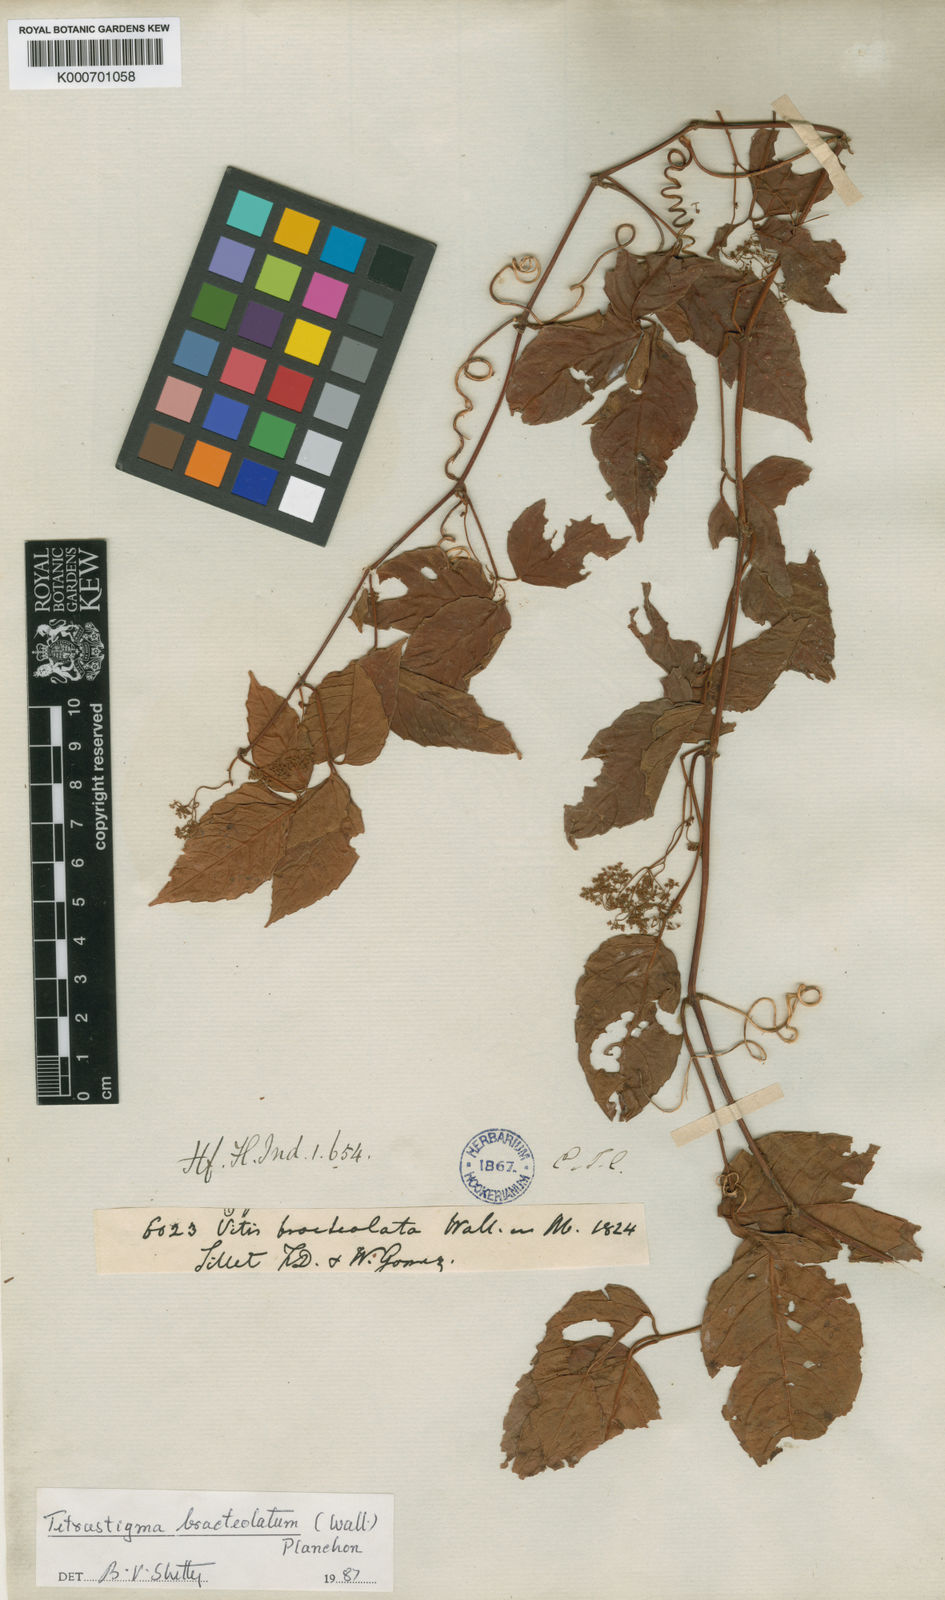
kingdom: Plantae
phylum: Tracheophyta
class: Magnoliopsida
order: Vitales
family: Vitaceae
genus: Tetrastigma
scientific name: Tetrastigma bracteolatum
